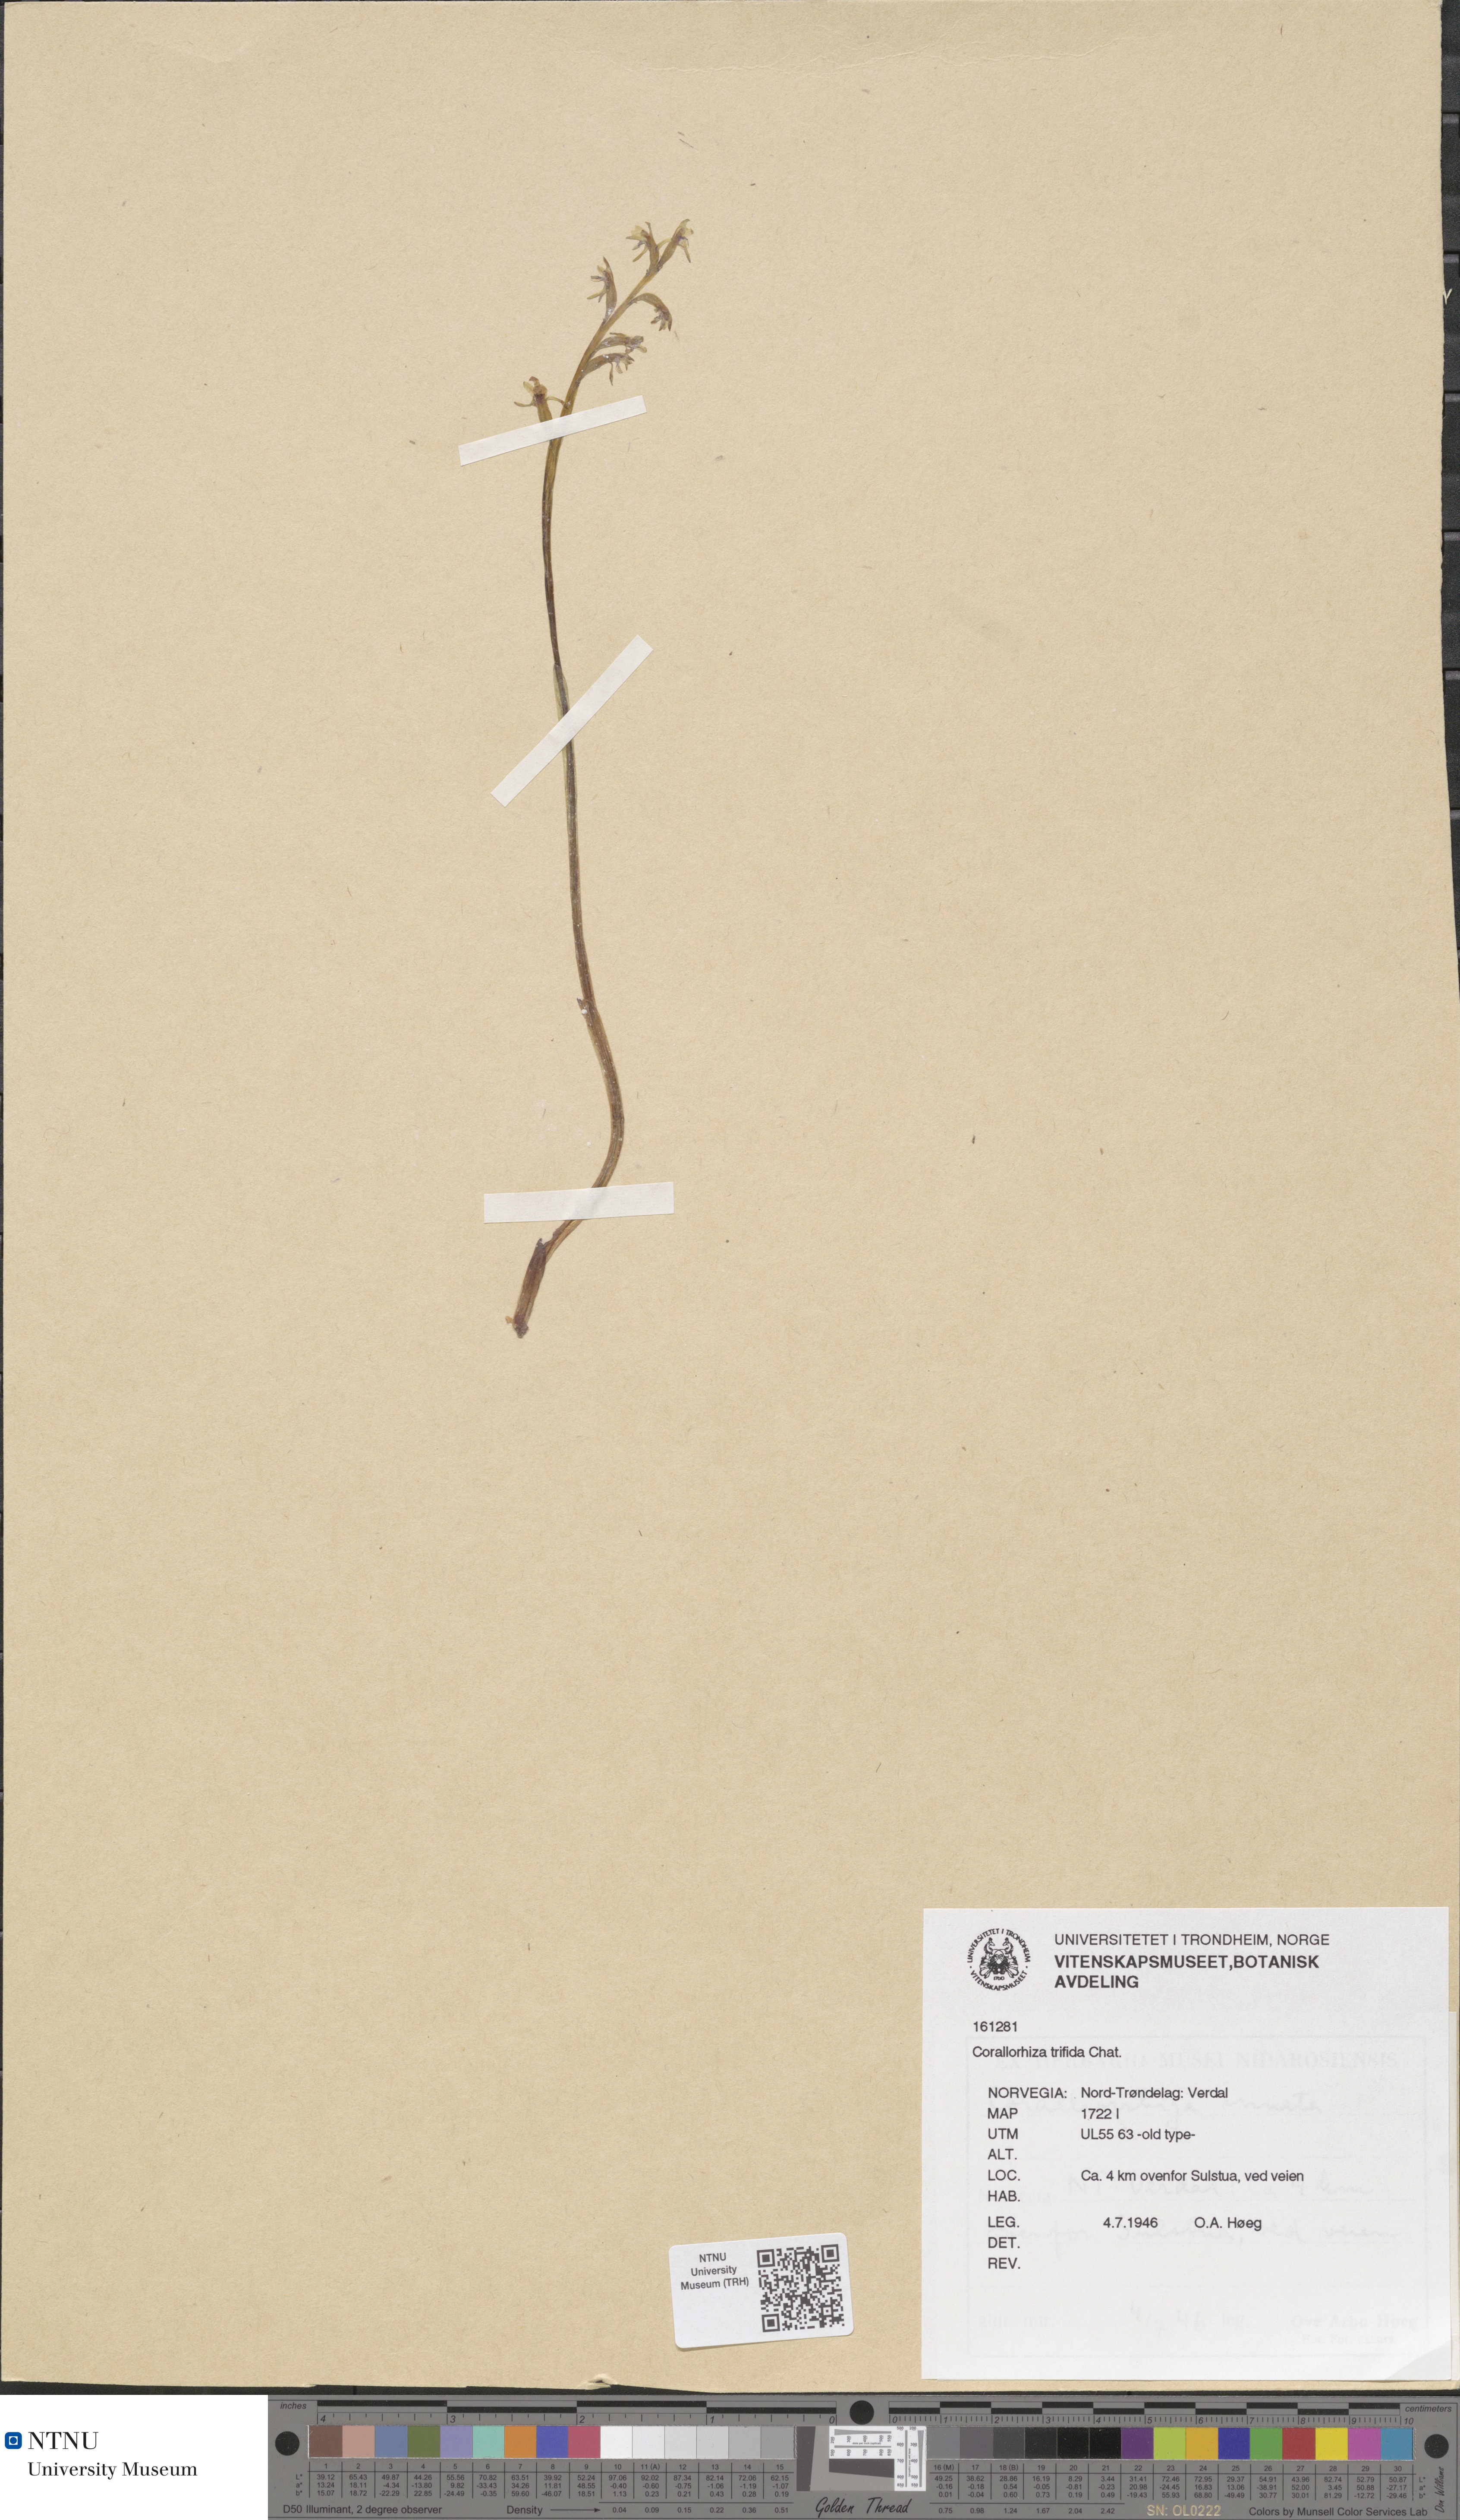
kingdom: Plantae
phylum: Tracheophyta
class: Liliopsida
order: Asparagales
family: Orchidaceae
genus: Corallorhiza
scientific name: Corallorhiza trifida
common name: Yellow coralroot
